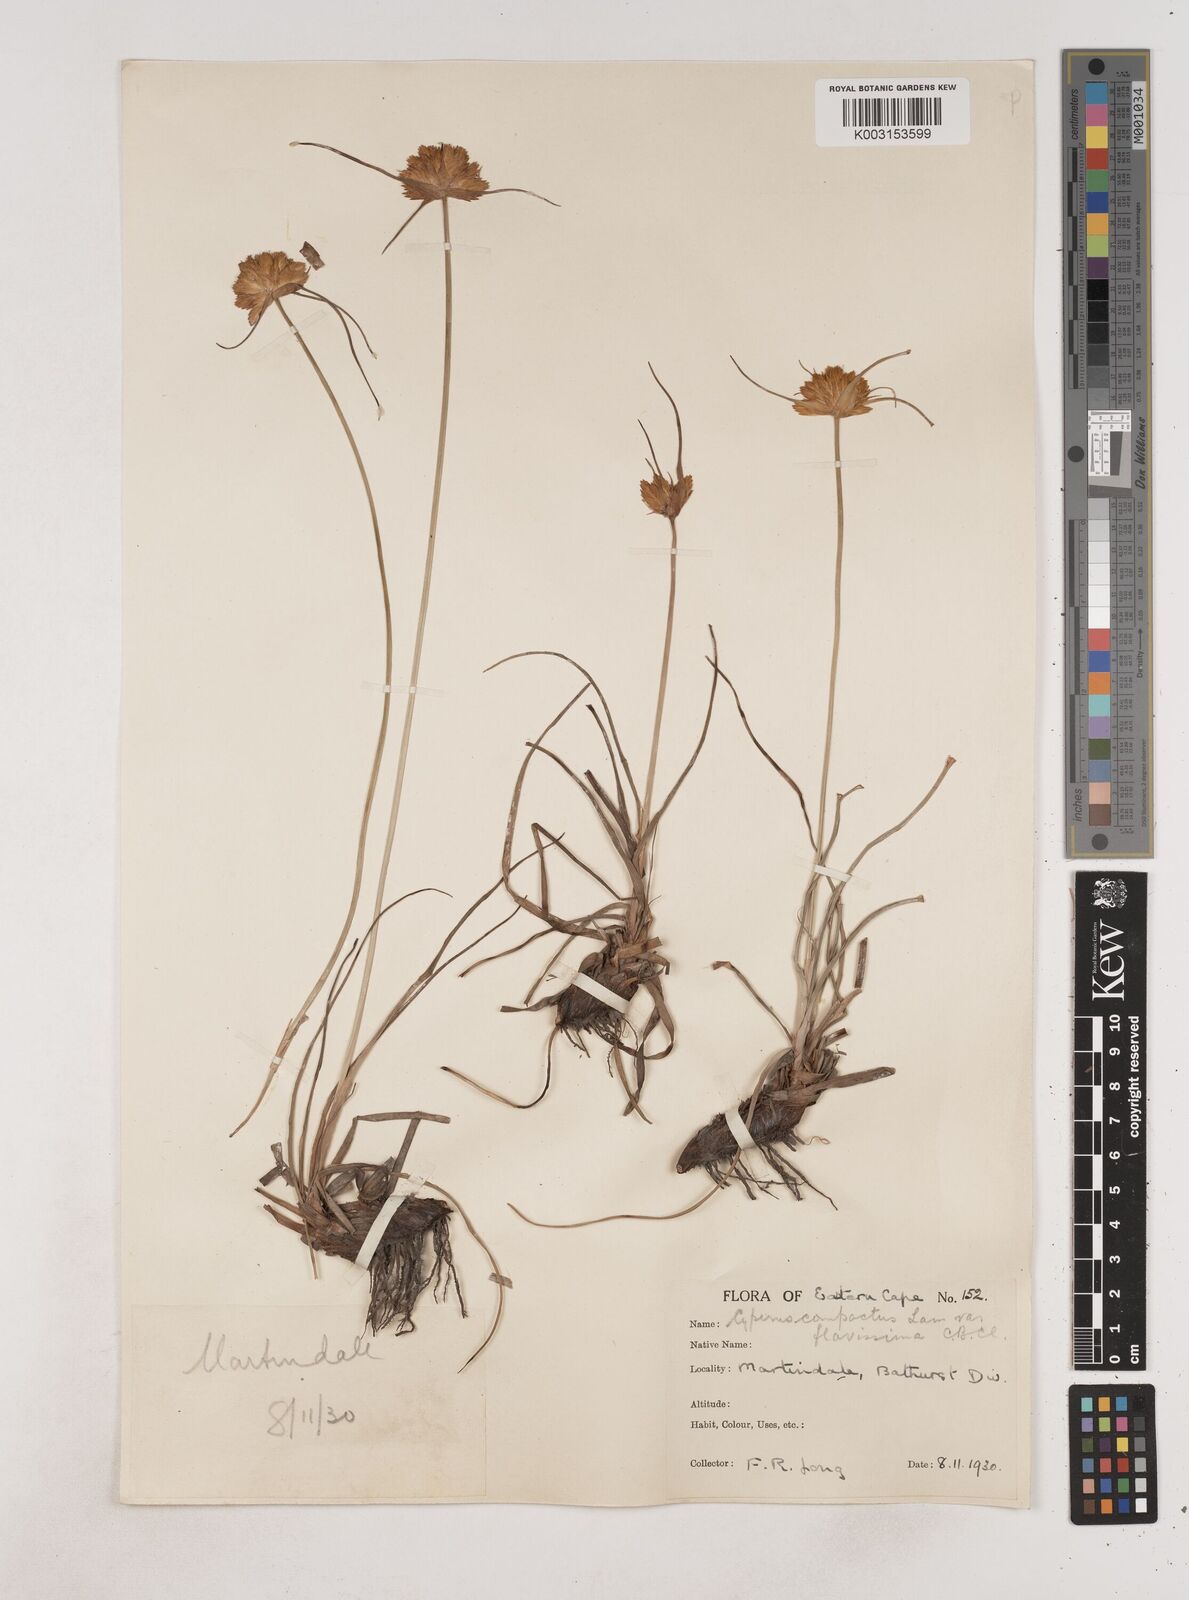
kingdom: Plantae
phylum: Tracheophyta
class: Liliopsida
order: Poales
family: Cyperaceae
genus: Cyperus
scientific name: Cyperus niveus
